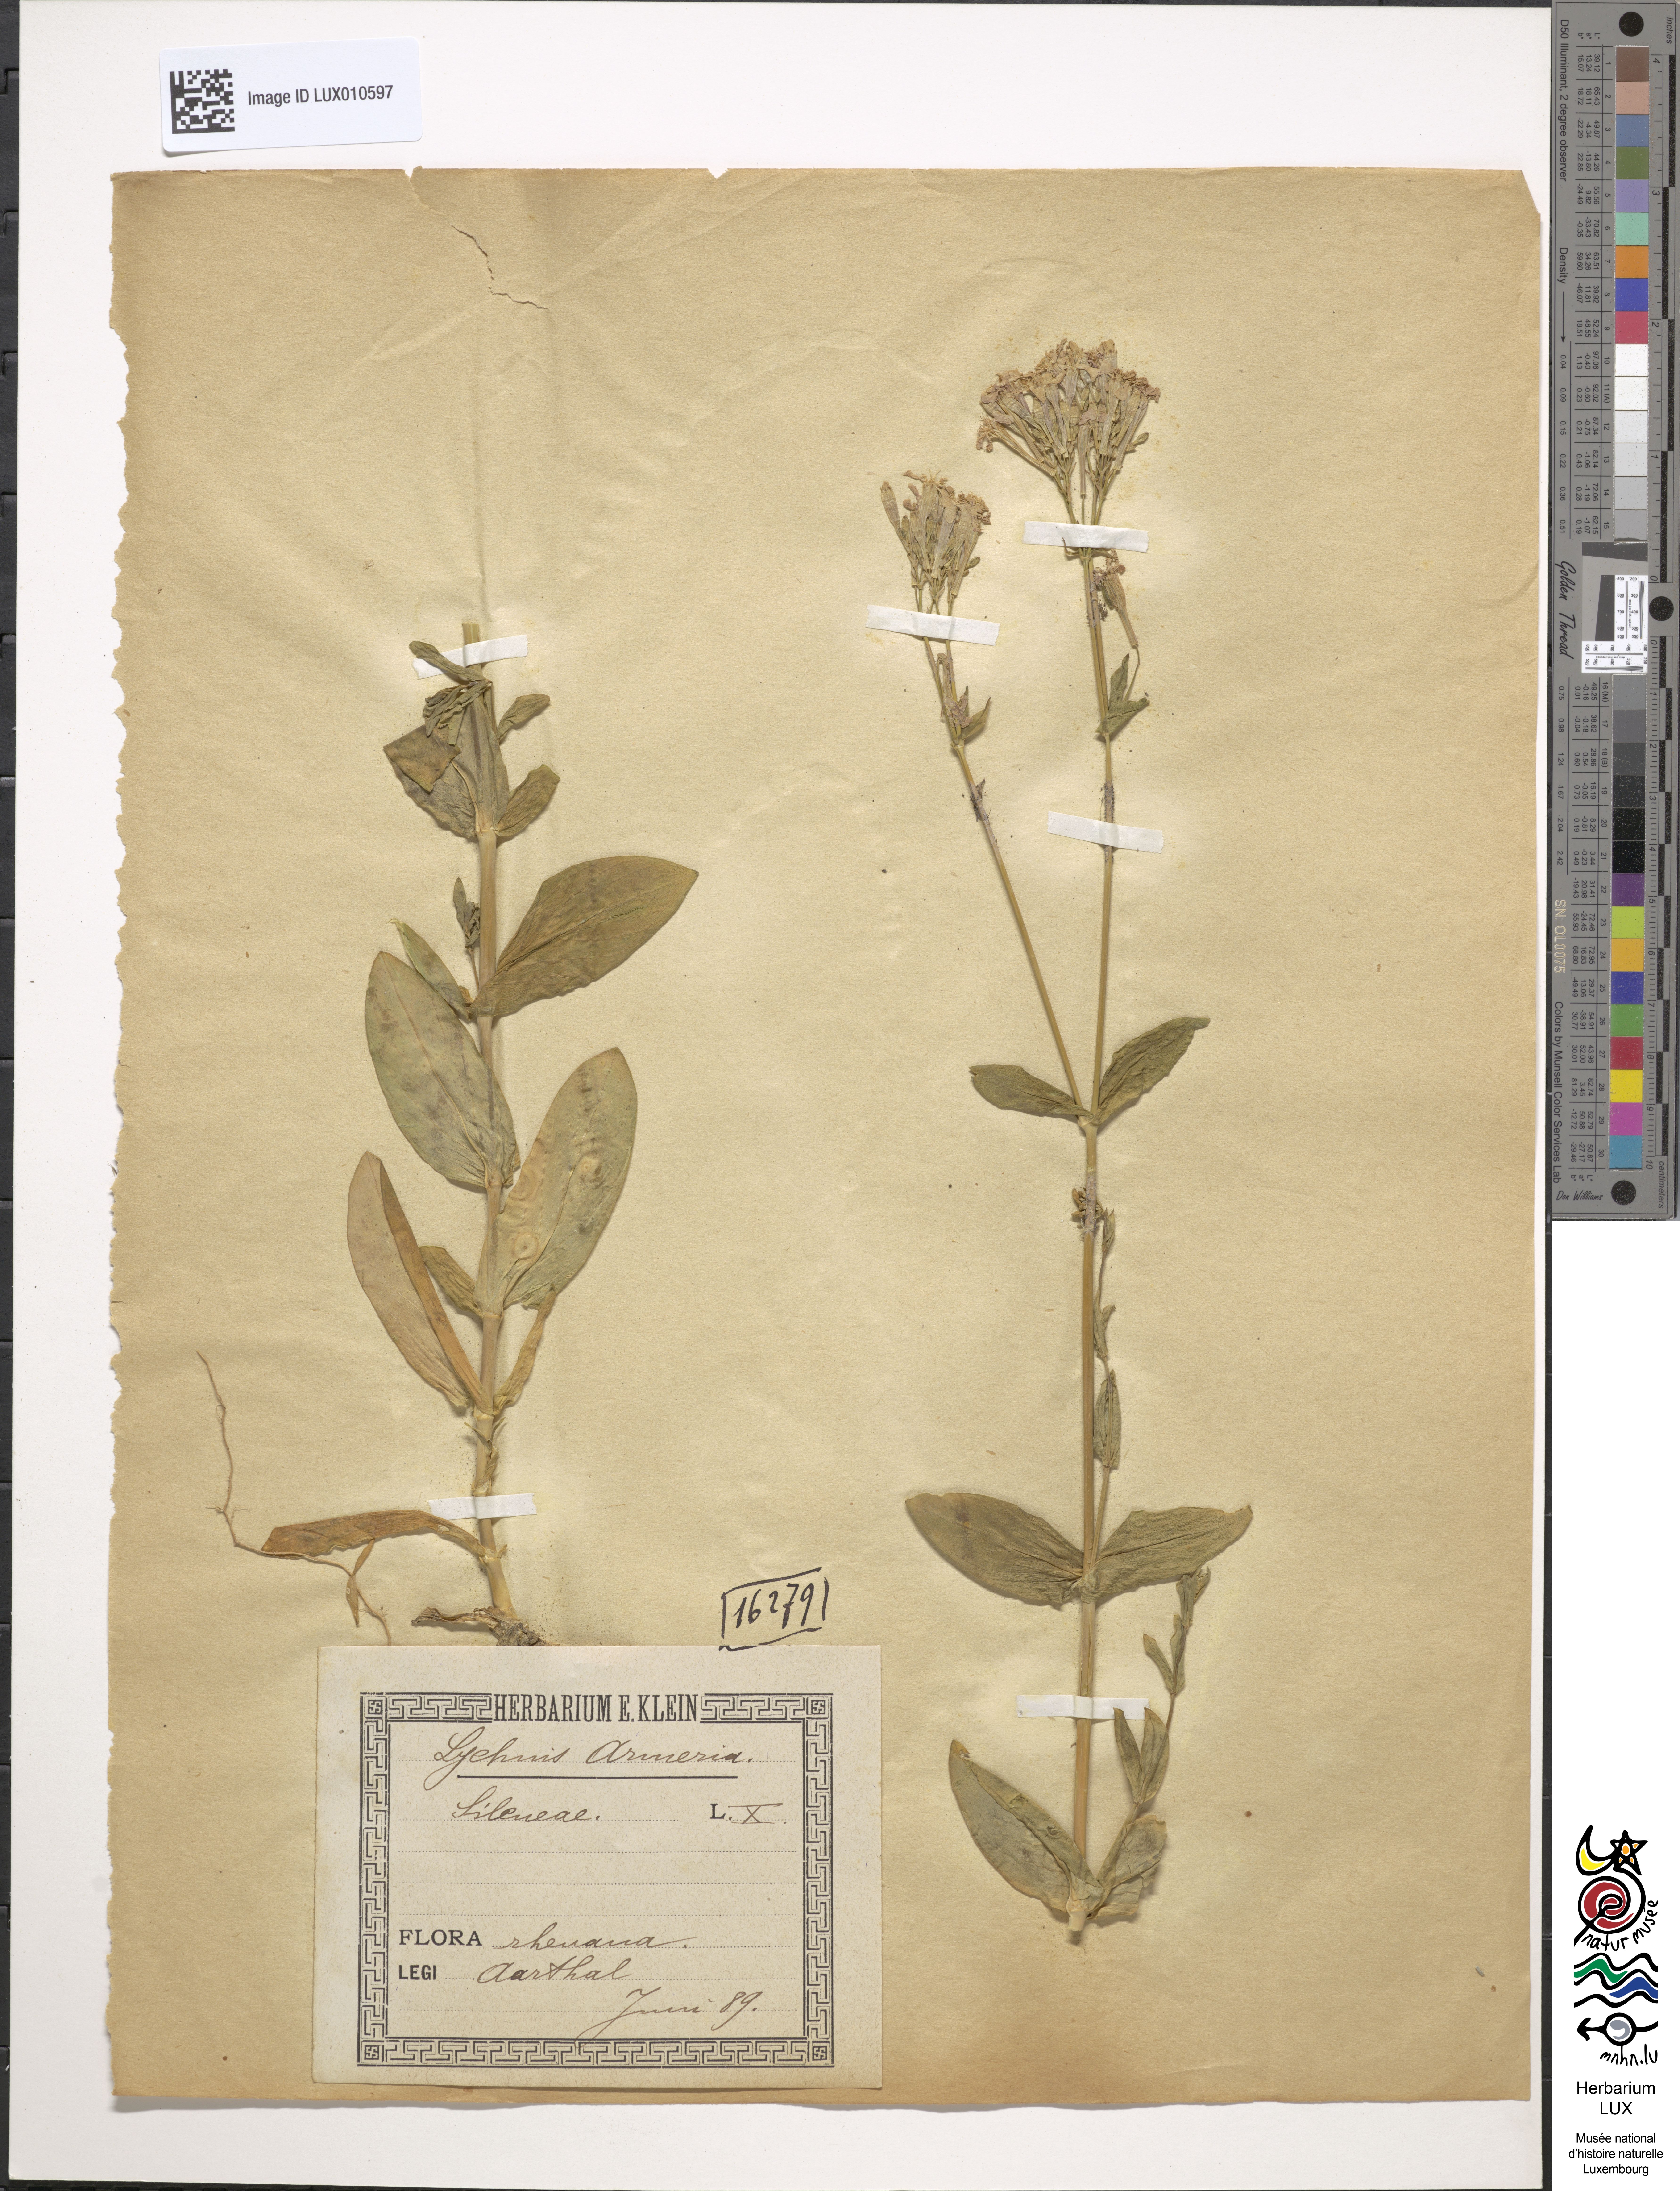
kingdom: Plantae
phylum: Tracheophyta
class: Magnoliopsida
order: Caryophyllales
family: Caryophyllaceae
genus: Atocion
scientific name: Atocion armeria
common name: Sweet william catchfly
